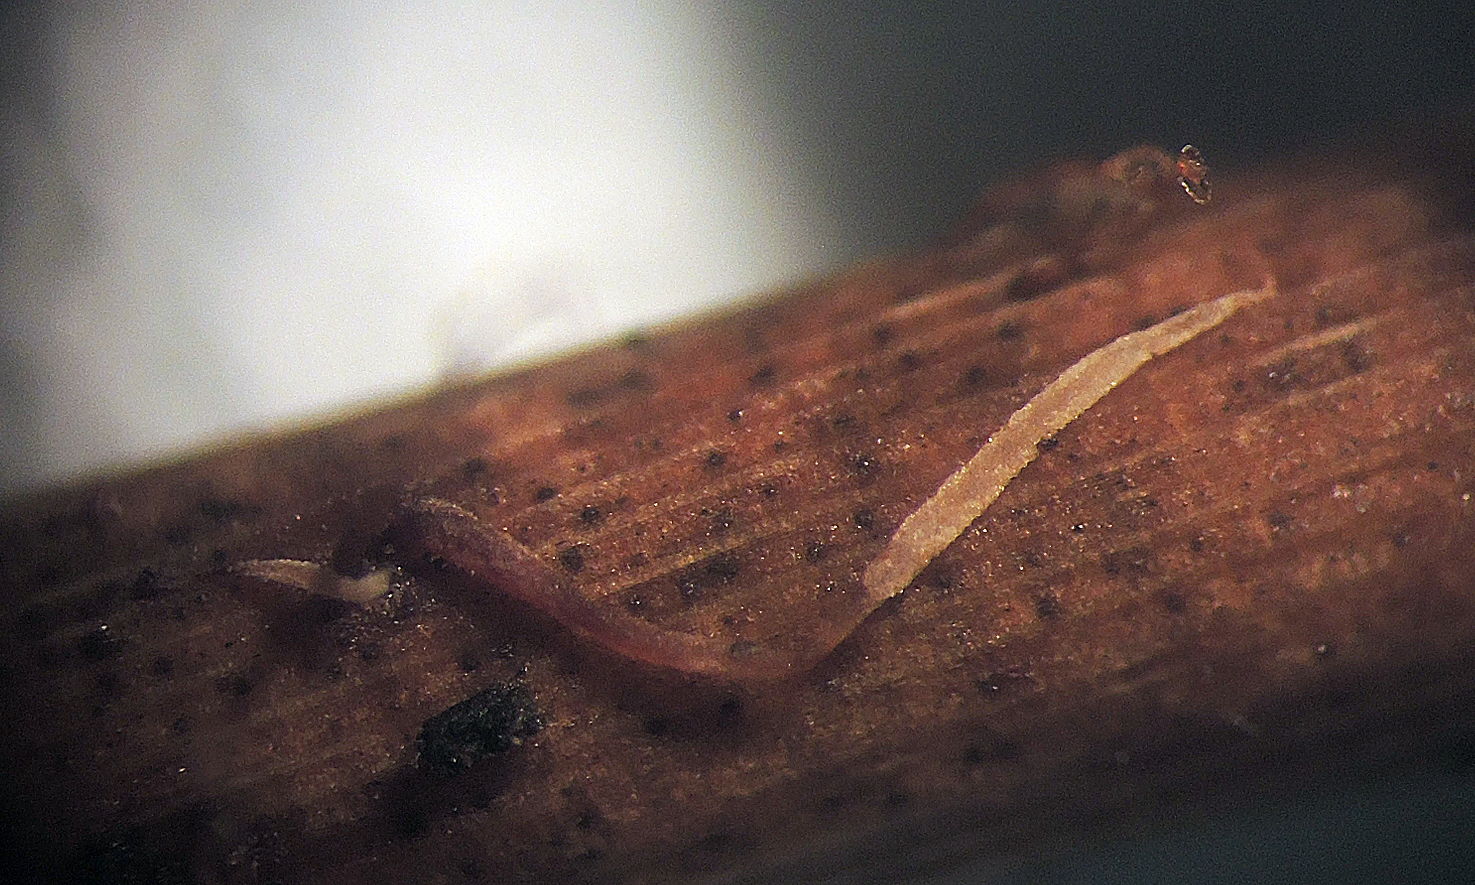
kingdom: Fungi
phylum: Basidiomycota
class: Agaricomycetes
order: Agaricales
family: Pterulaceae
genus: Pterulicium
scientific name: Pterulicium gracile
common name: trådformet fjerkølle
